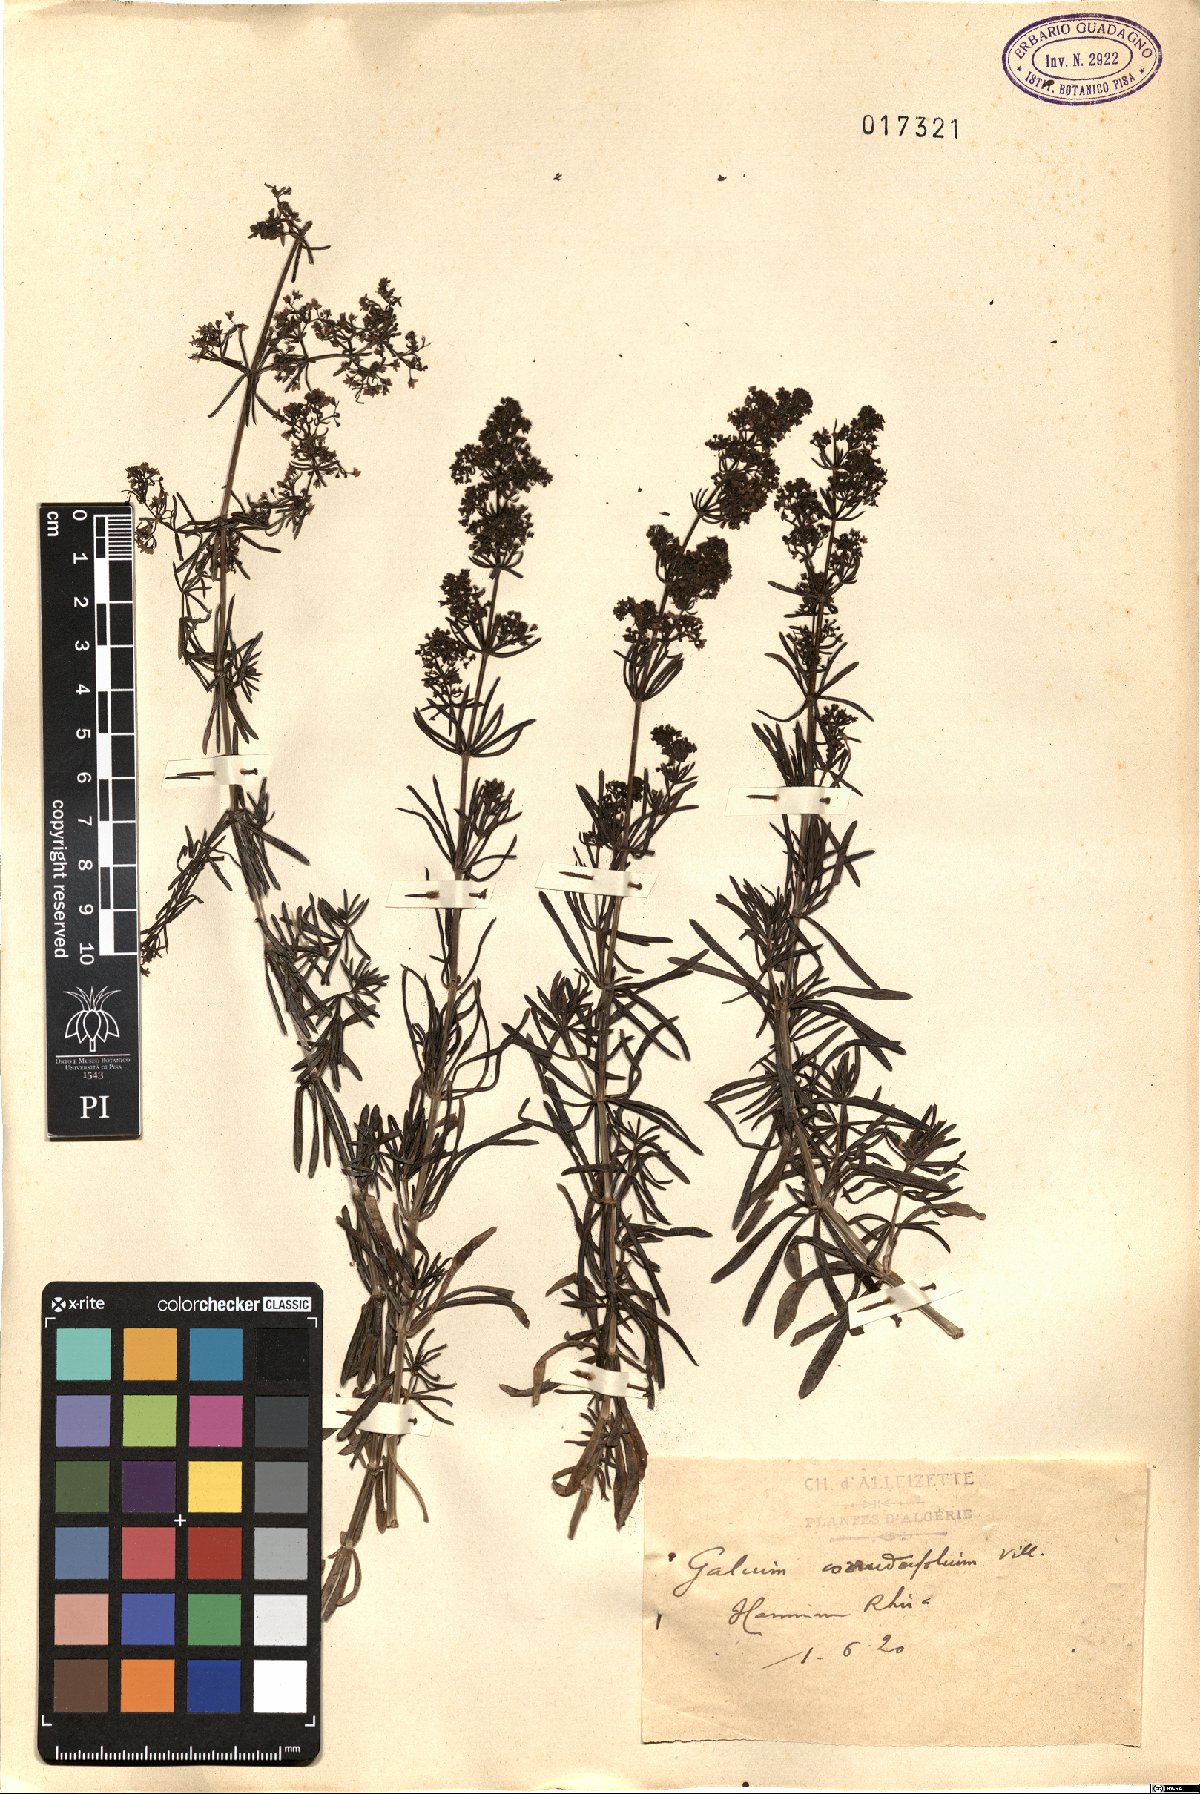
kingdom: Plantae
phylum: Tracheophyta
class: Magnoliopsida
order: Gentianales
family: Rubiaceae
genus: Galium
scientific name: Galium lucidum
